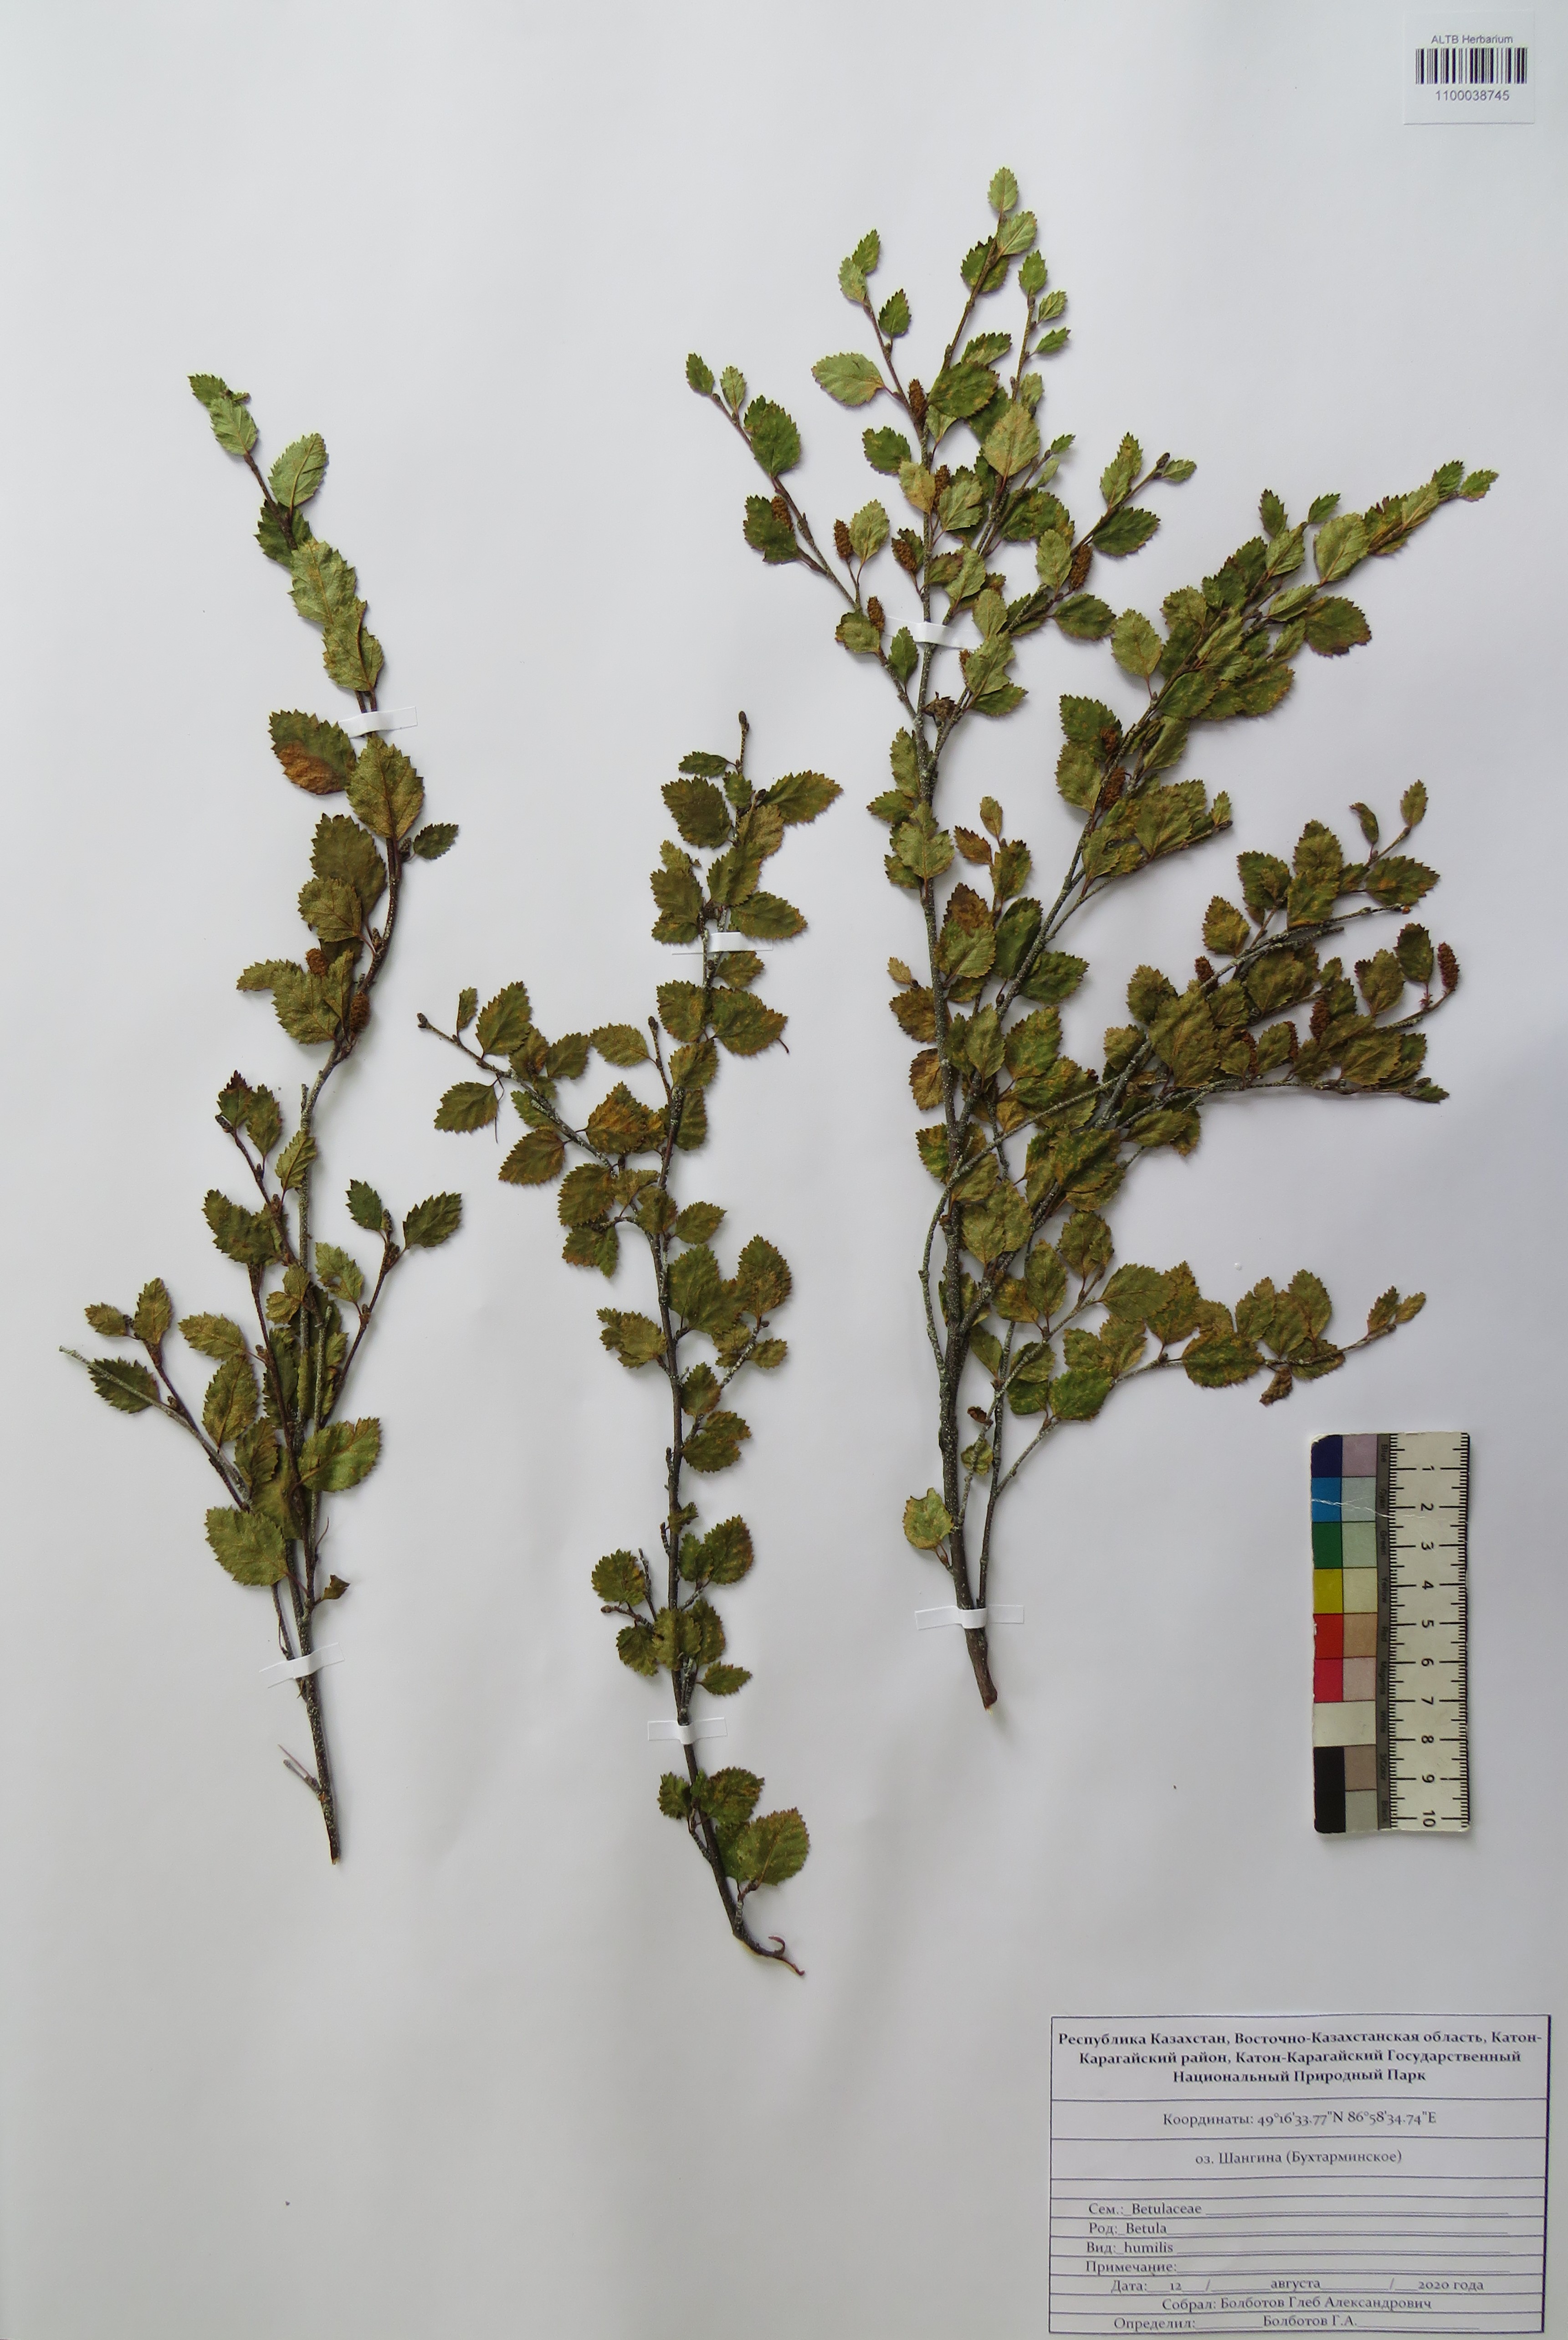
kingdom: Plantae
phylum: Tracheophyta
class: Magnoliopsida
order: Fagales
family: Betulaceae
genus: Betula
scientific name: Betula humilis
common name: Shrubby birch
